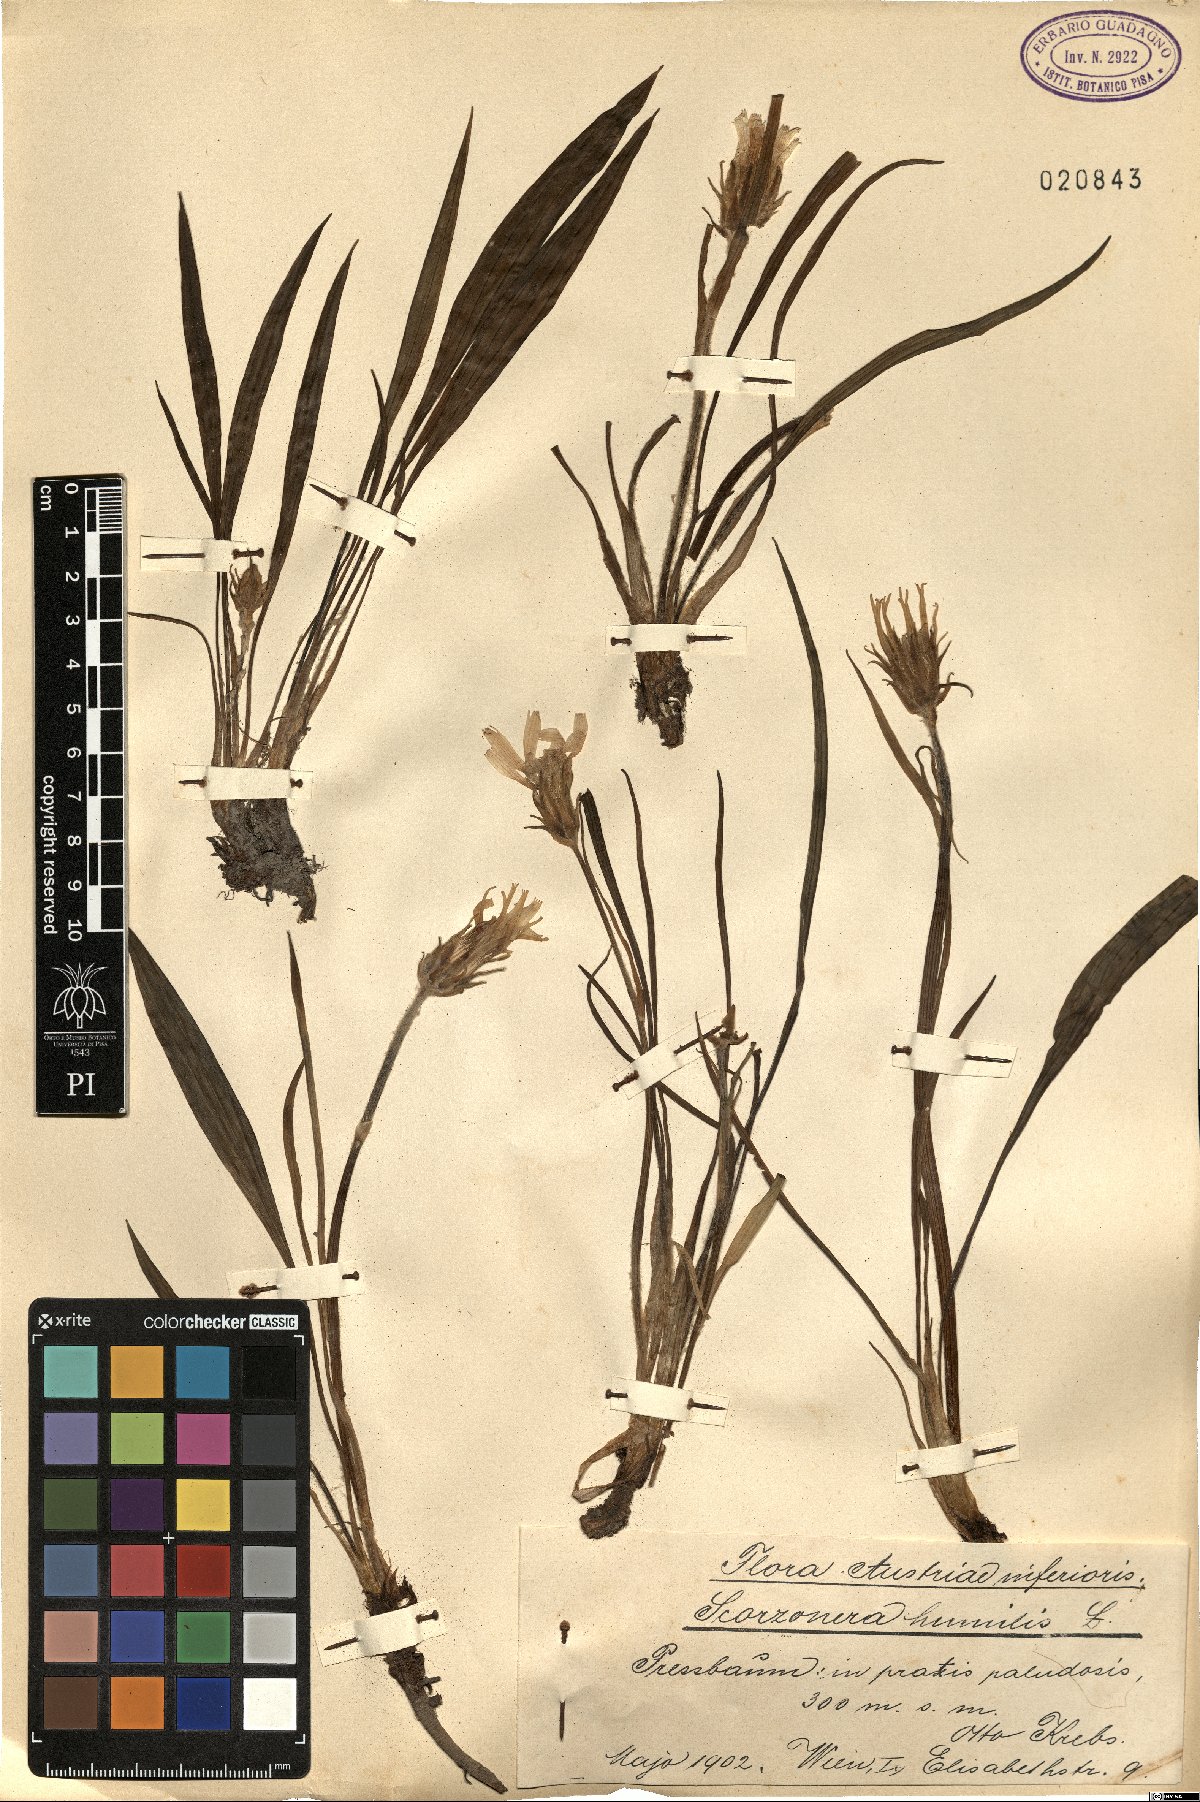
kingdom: Plantae
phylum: Tracheophyta
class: Magnoliopsida
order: Asterales
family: Asteraceae
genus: Scorzonera
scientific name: Scorzonera humilis
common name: Viper's-grass
